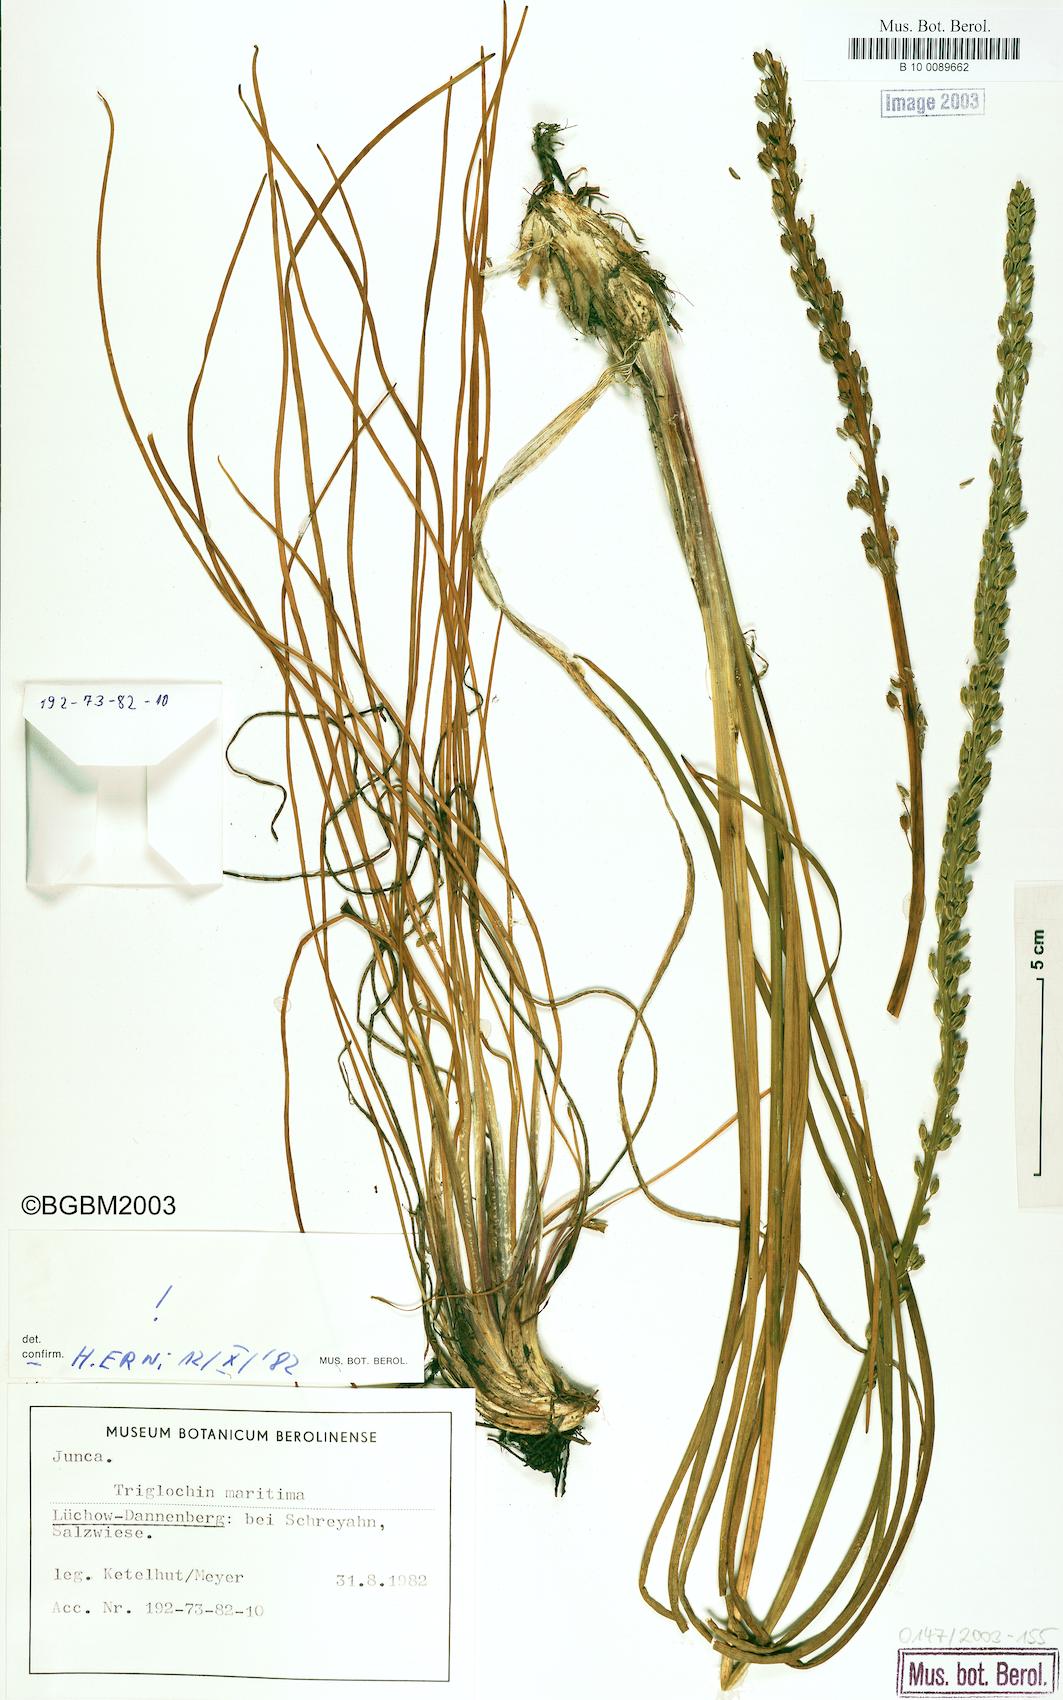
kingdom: Plantae
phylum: Tracheophyta
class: Liliopsida
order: Alismatales
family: Juncaginaceae
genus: Triglochin
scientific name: Triglochin maritima
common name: Sea arrowgrass
